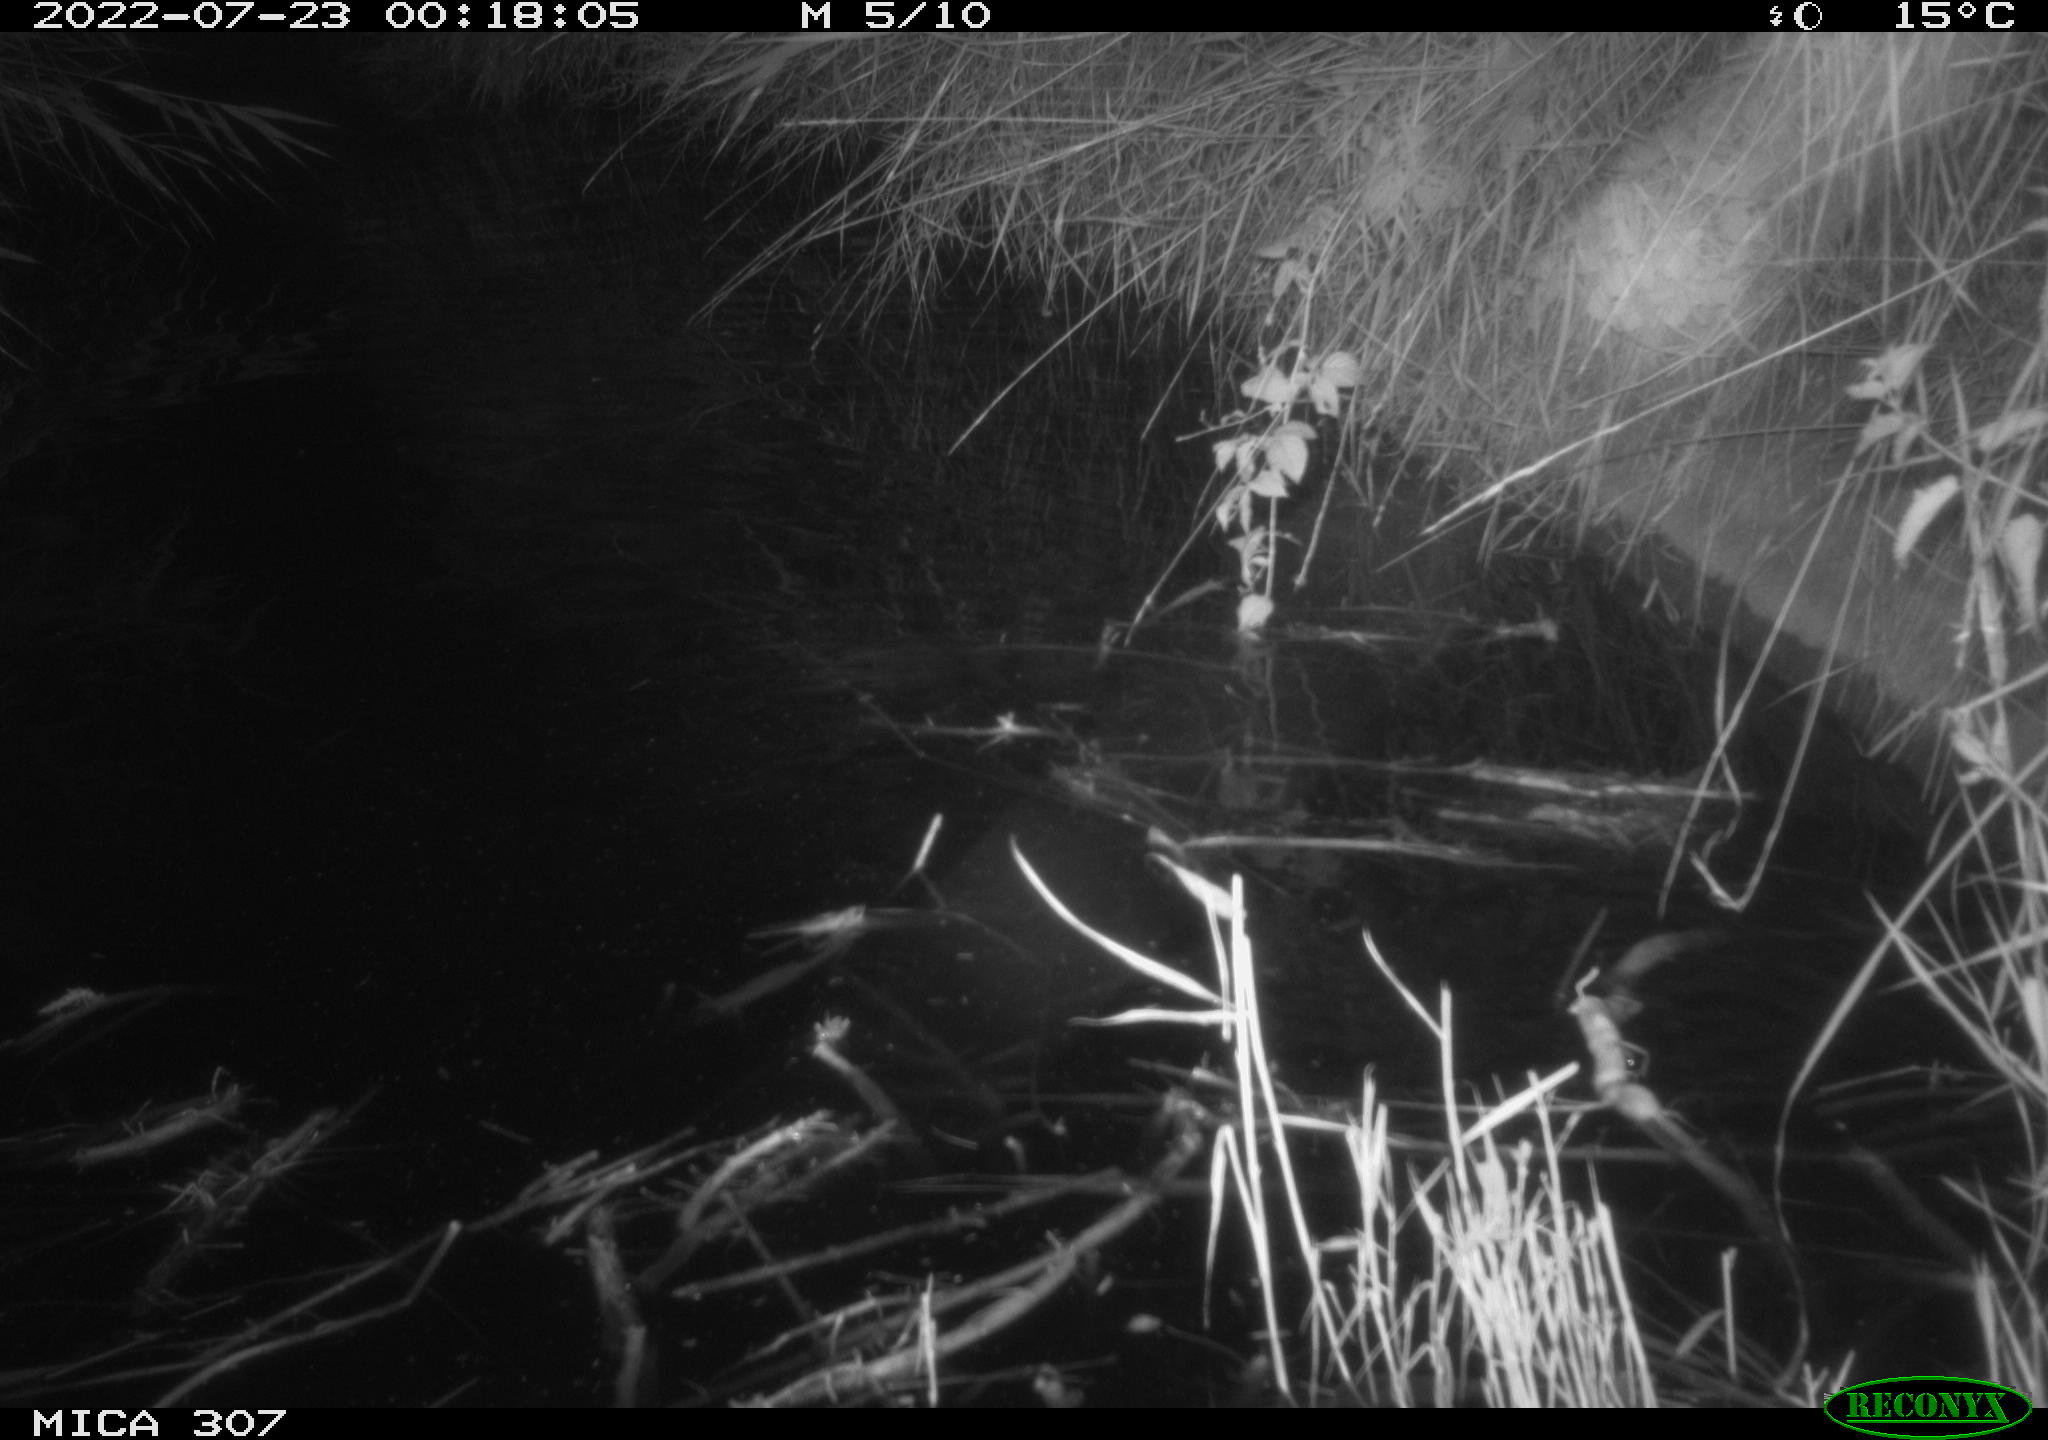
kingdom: Animalia
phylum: Chordata
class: Mammalia
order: Rodentia
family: Muridae
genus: Rattus
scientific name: Rattus norvegicus
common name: Brown rat
